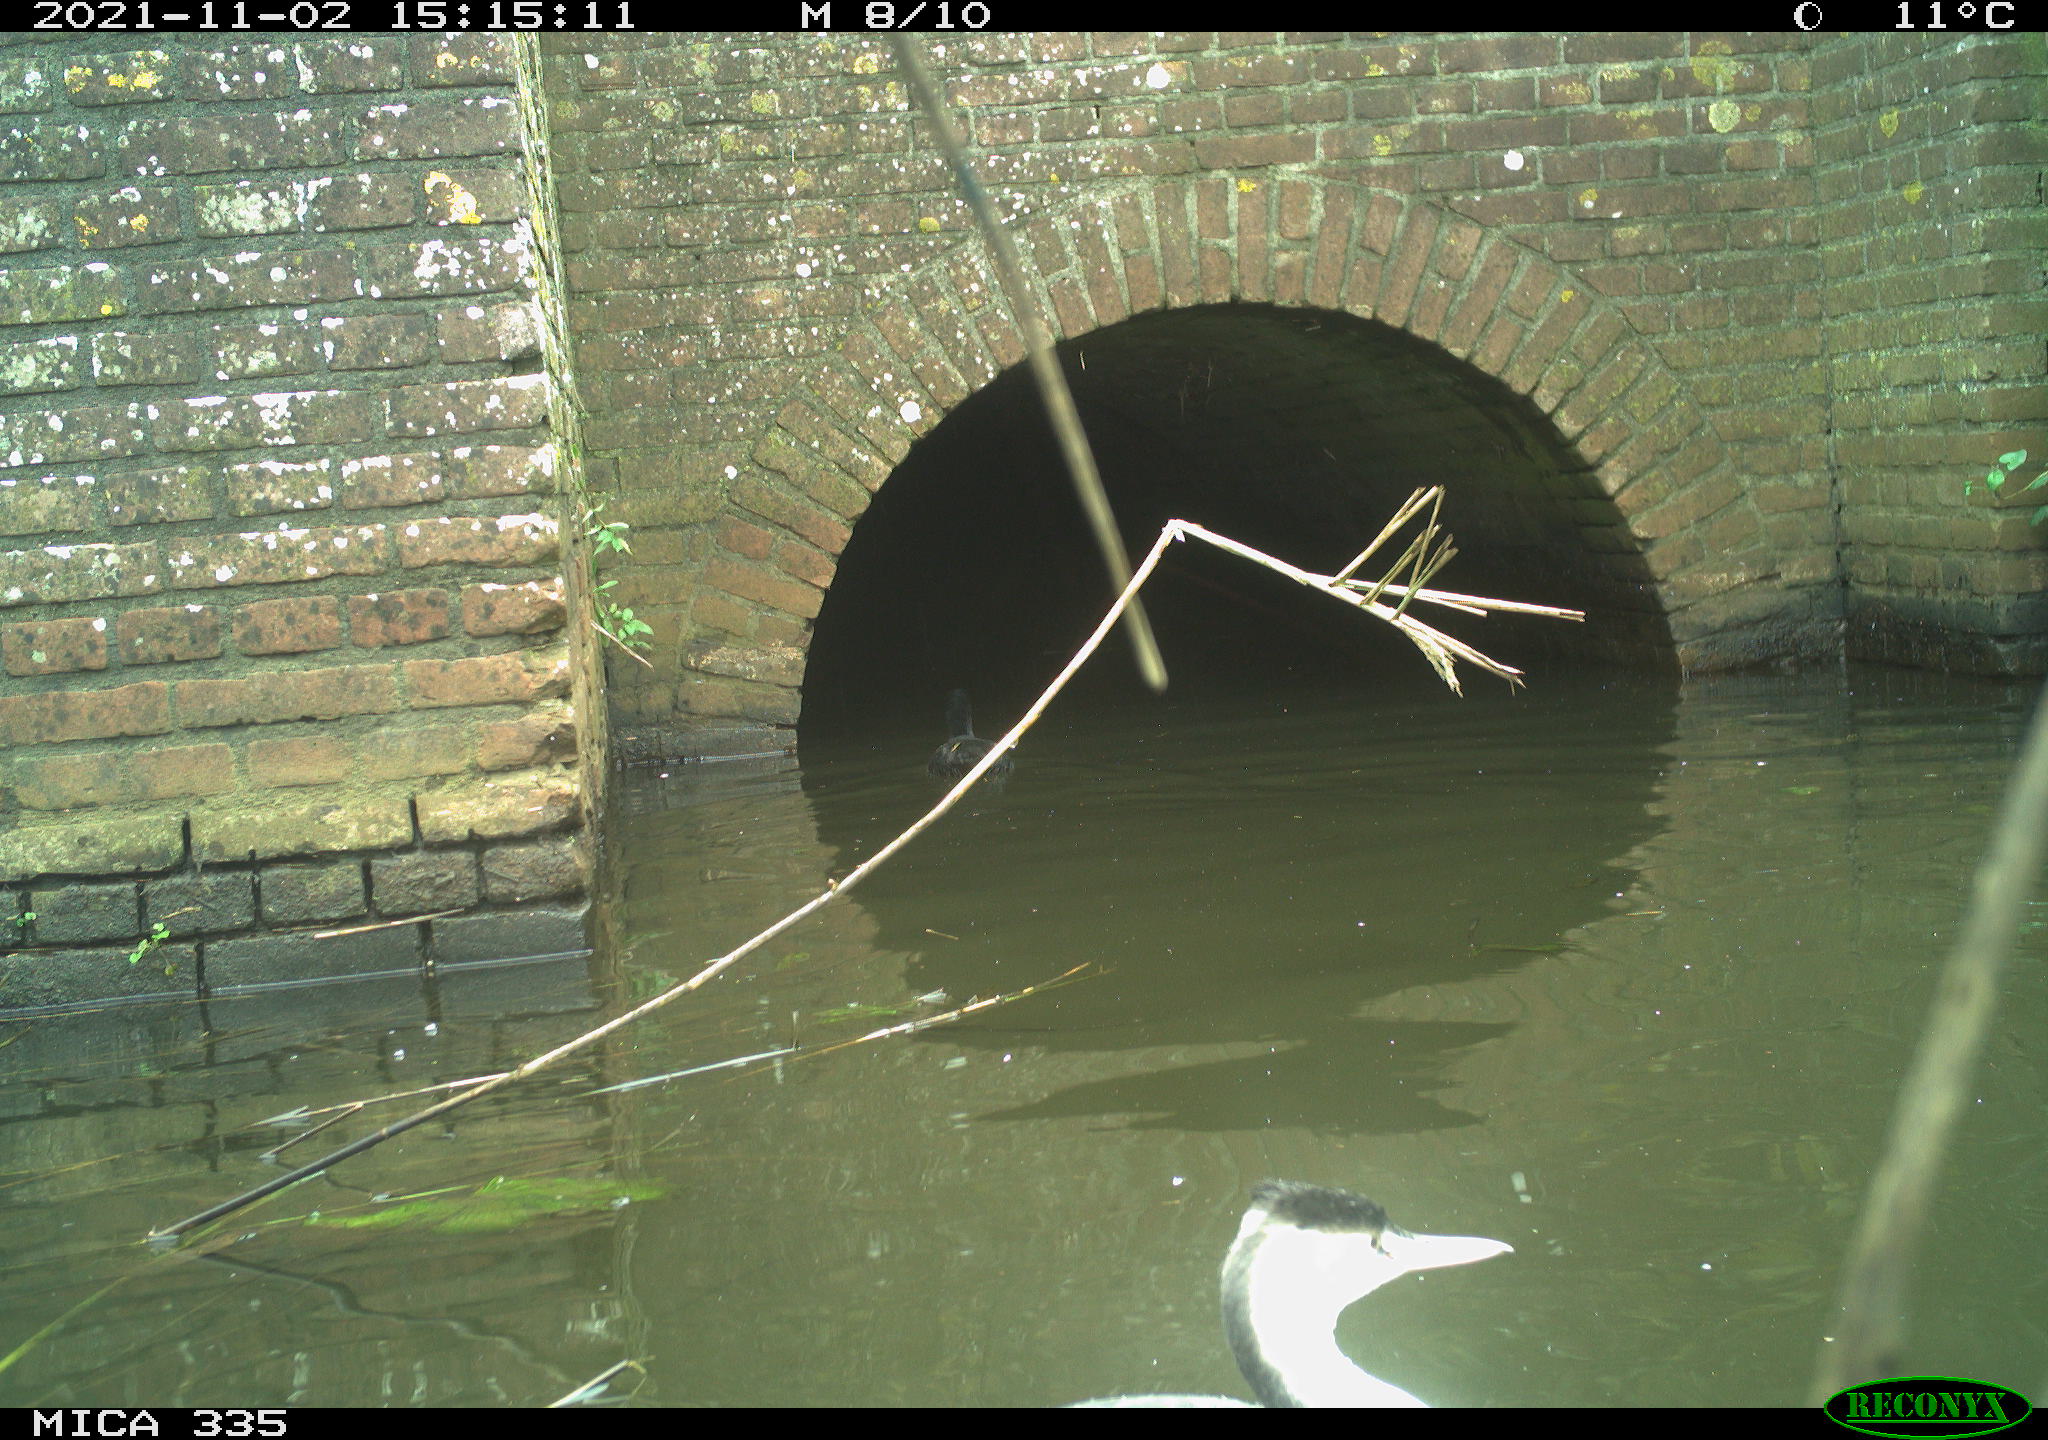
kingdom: Animalia
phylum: Chordata
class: Aves
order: Gruiformes
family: Rallidae
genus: Fulica
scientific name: Fulica atra
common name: Eurasian coot
